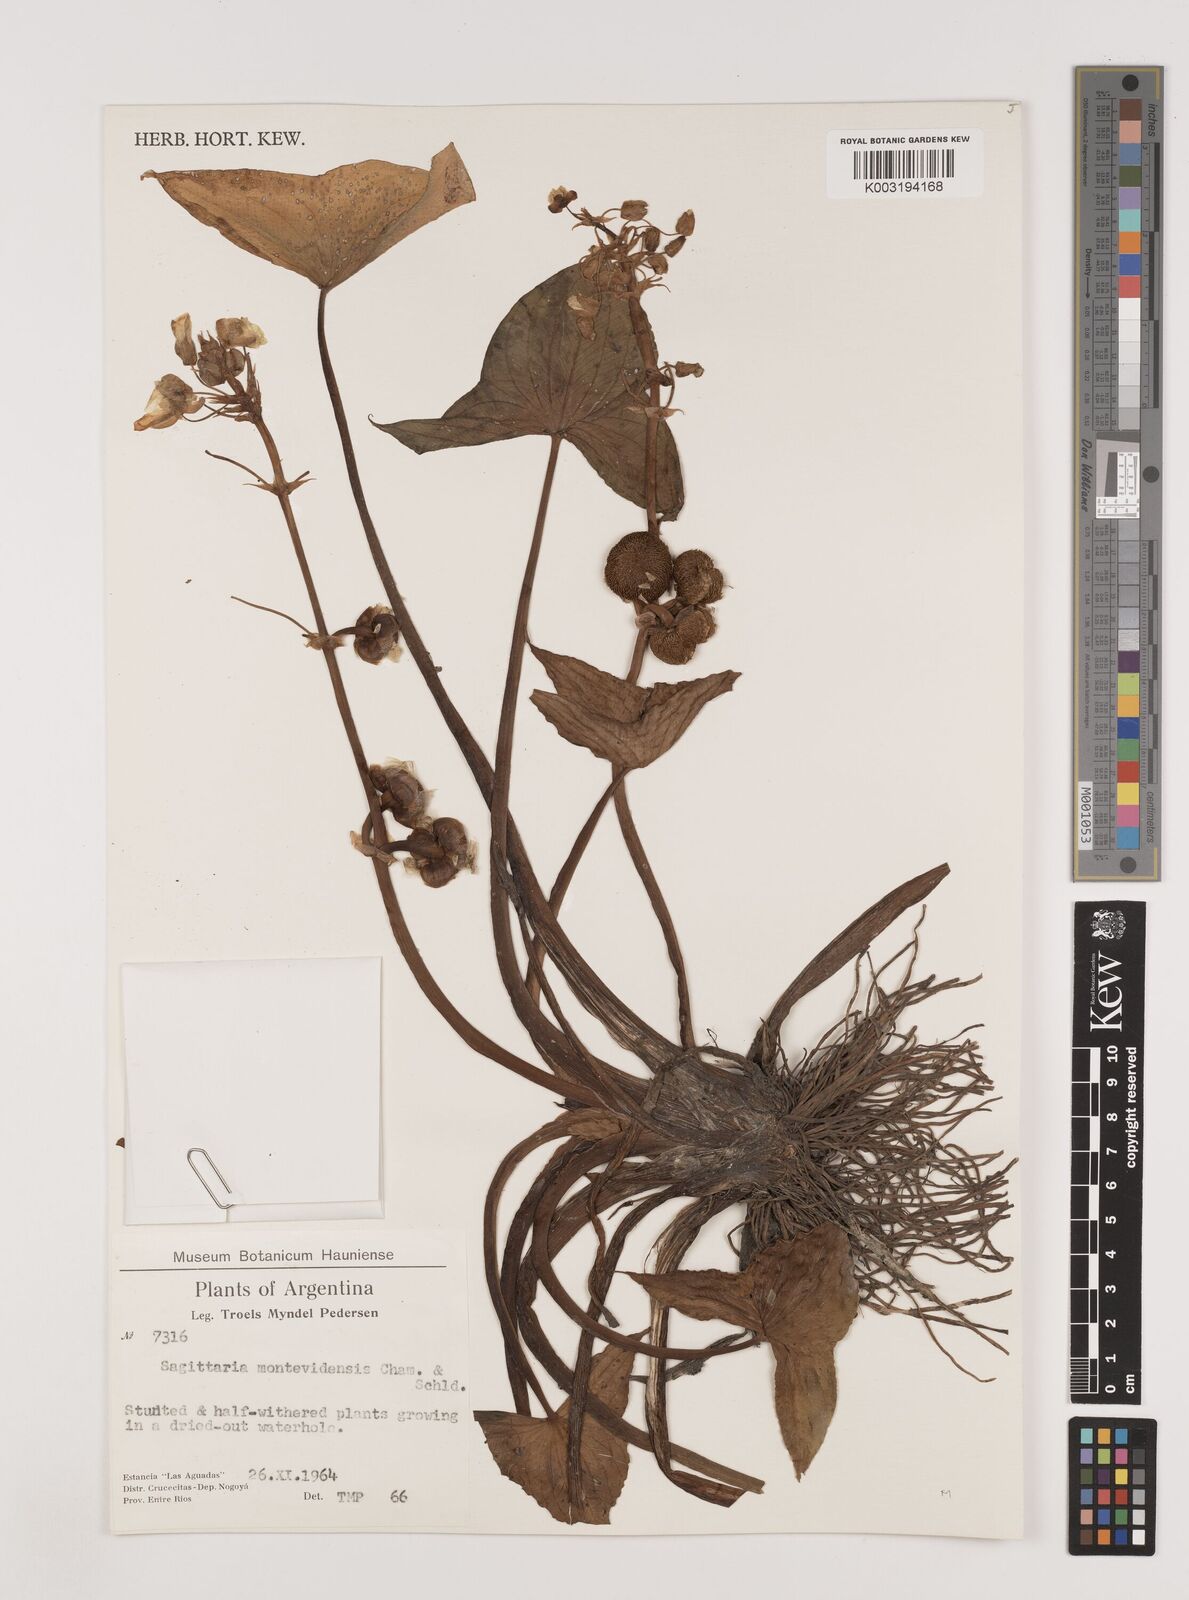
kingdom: Plantae
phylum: Tracheophyta
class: Liliopsida
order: Alismatales
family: Alismataceae
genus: Sagittaria
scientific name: Sagittaria montevidensis
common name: Giant arrowhead
